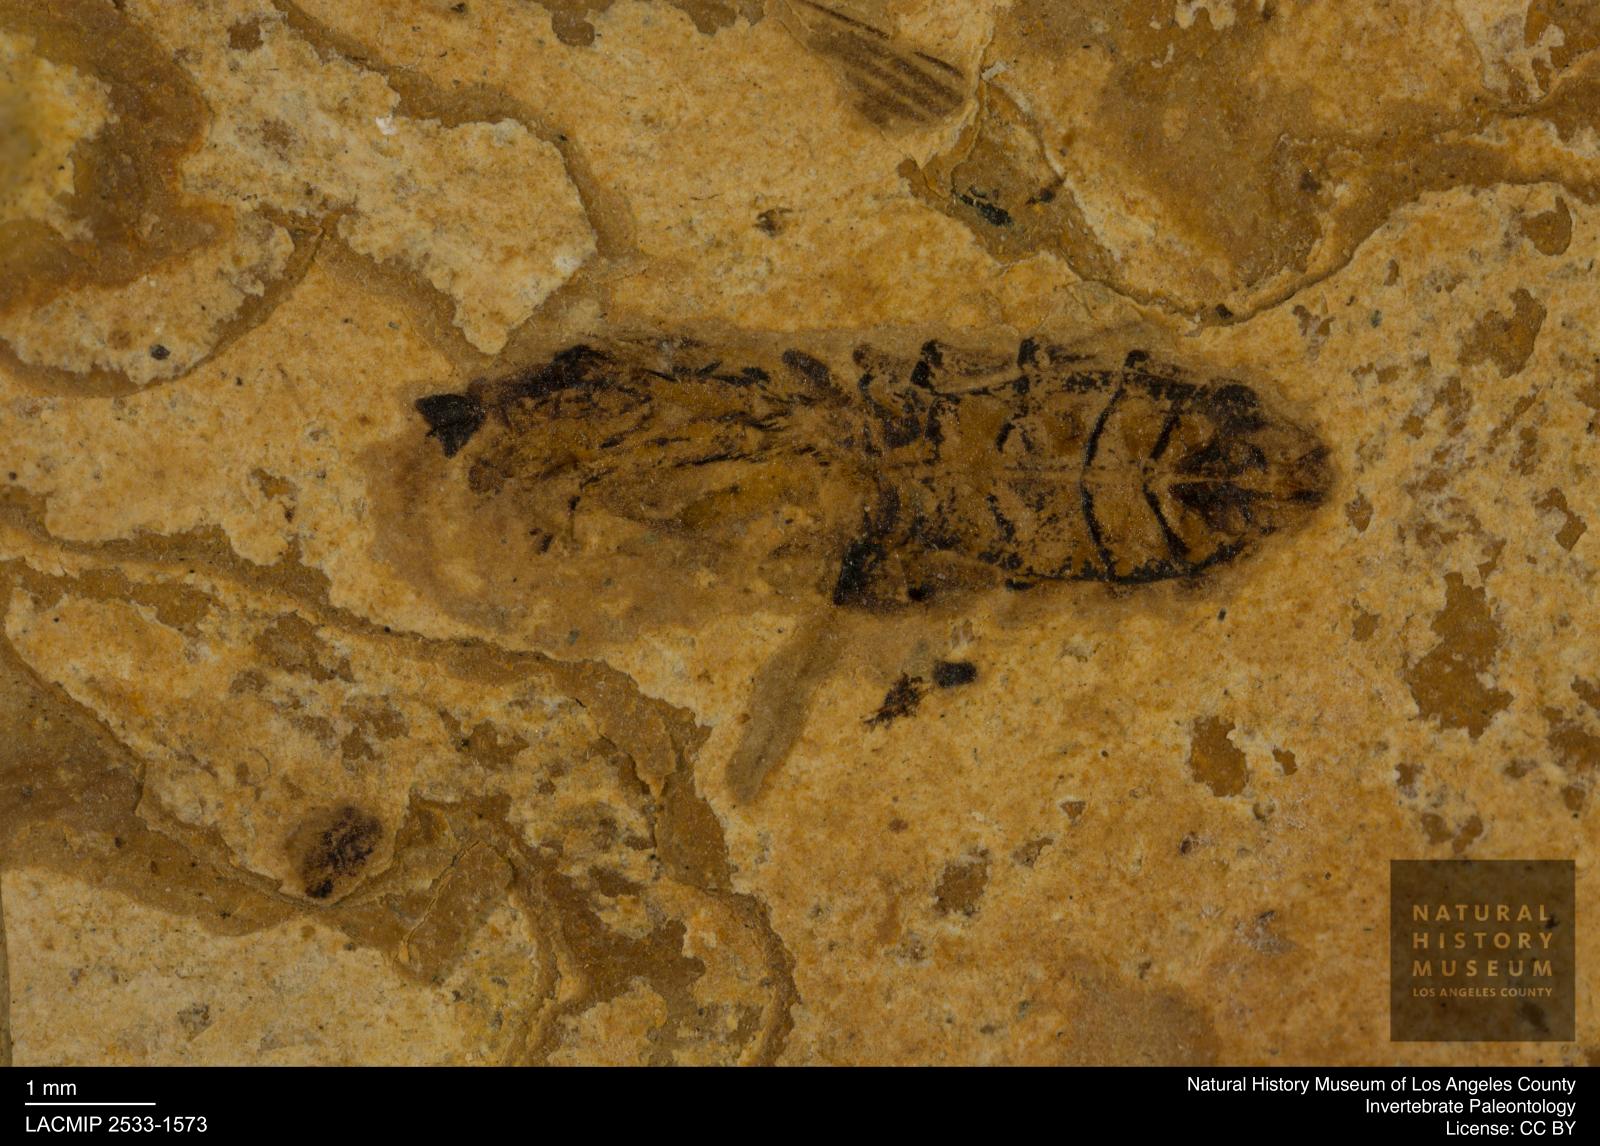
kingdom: Animalia
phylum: Arthropoda
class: Insecta
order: Hemiptera
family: Notonectidae
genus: Notonecta
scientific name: Notonecta
